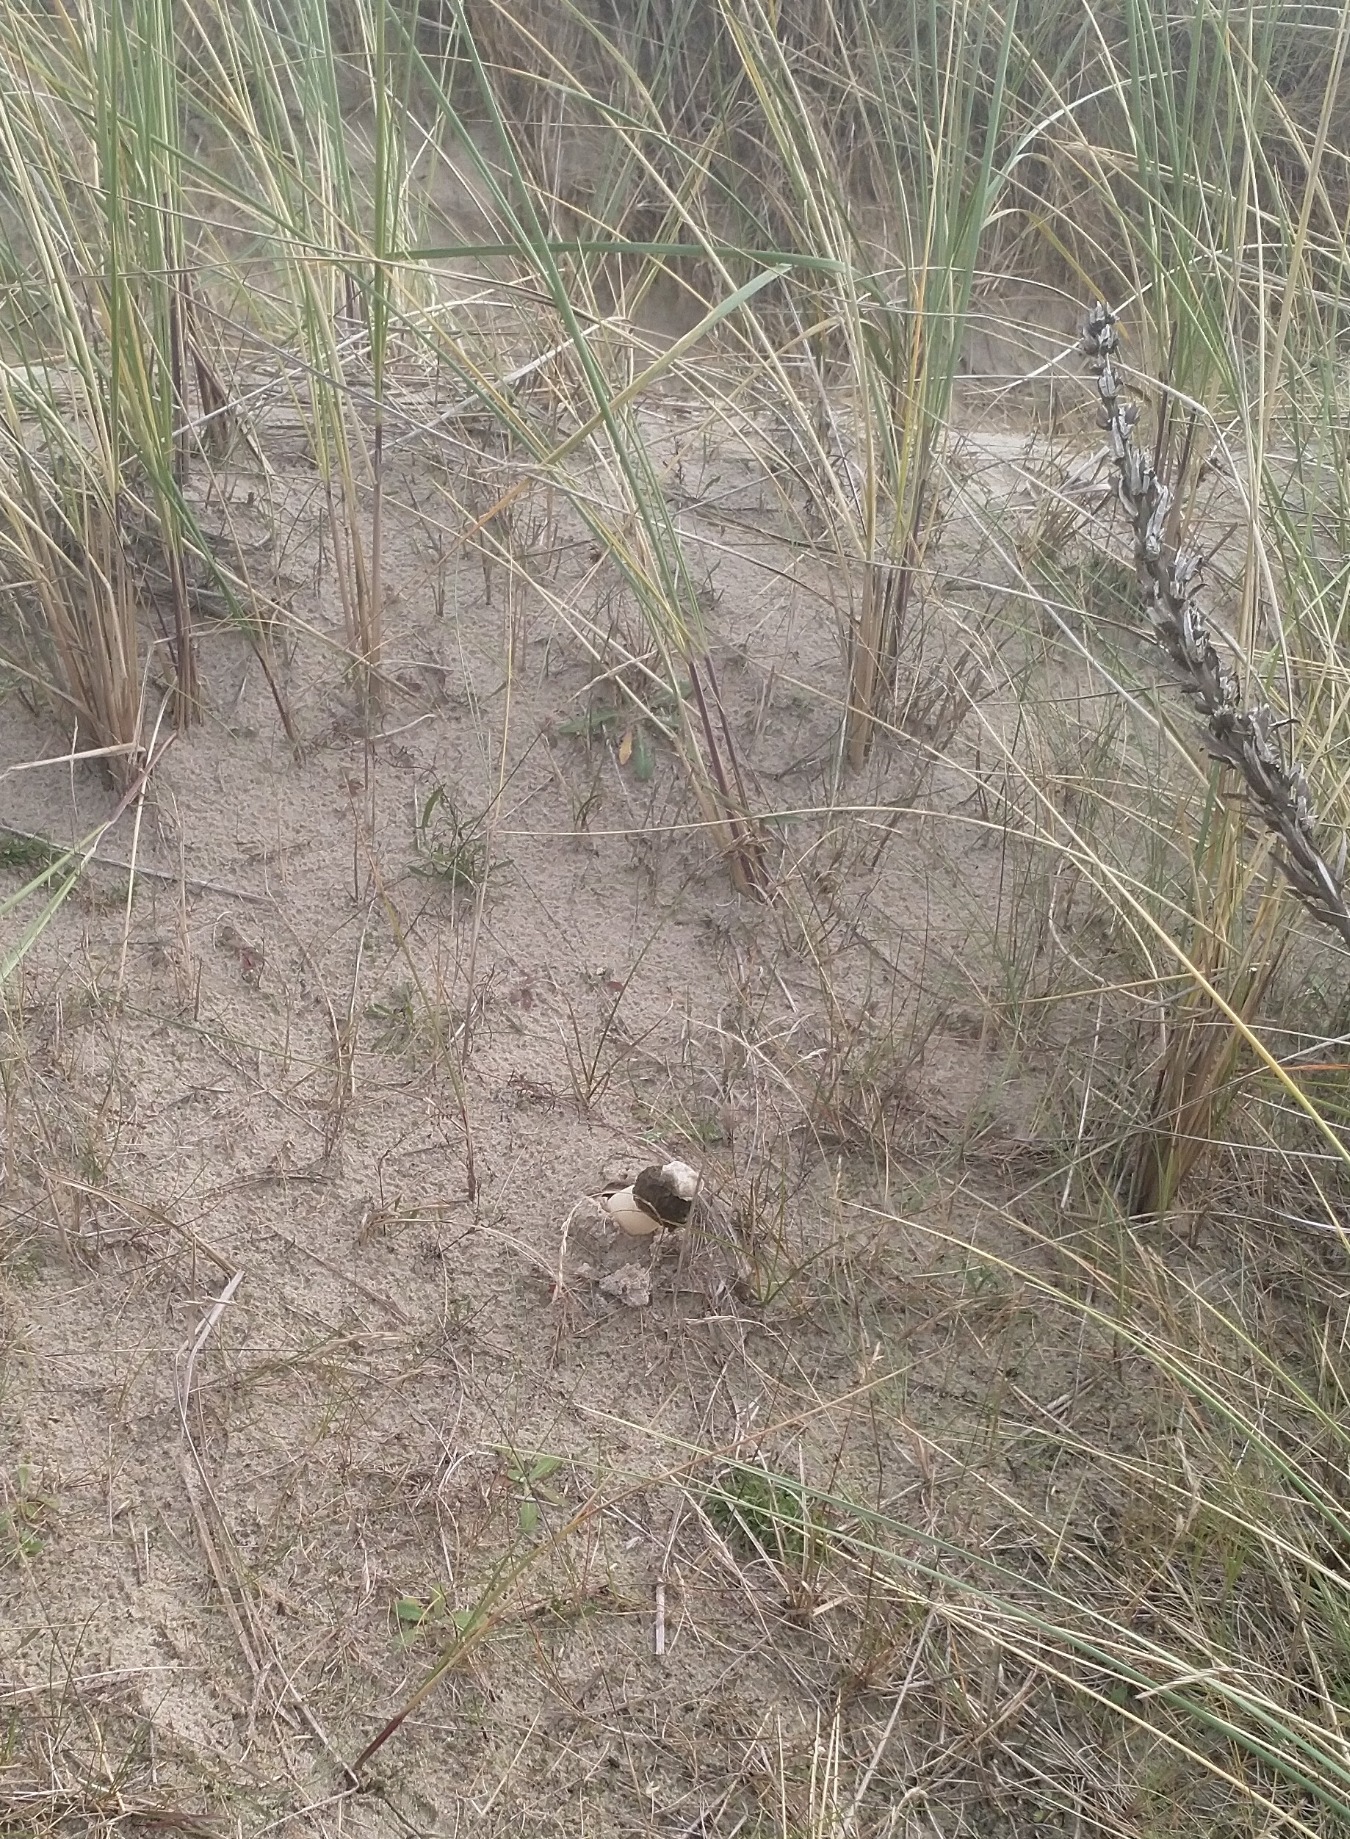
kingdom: Fungi
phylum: Basidiomycota
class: Agaricomycetes
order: Phallales
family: Phallaceae
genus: Phallus
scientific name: Phallus impudicus
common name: Almindelig stinksvamp
